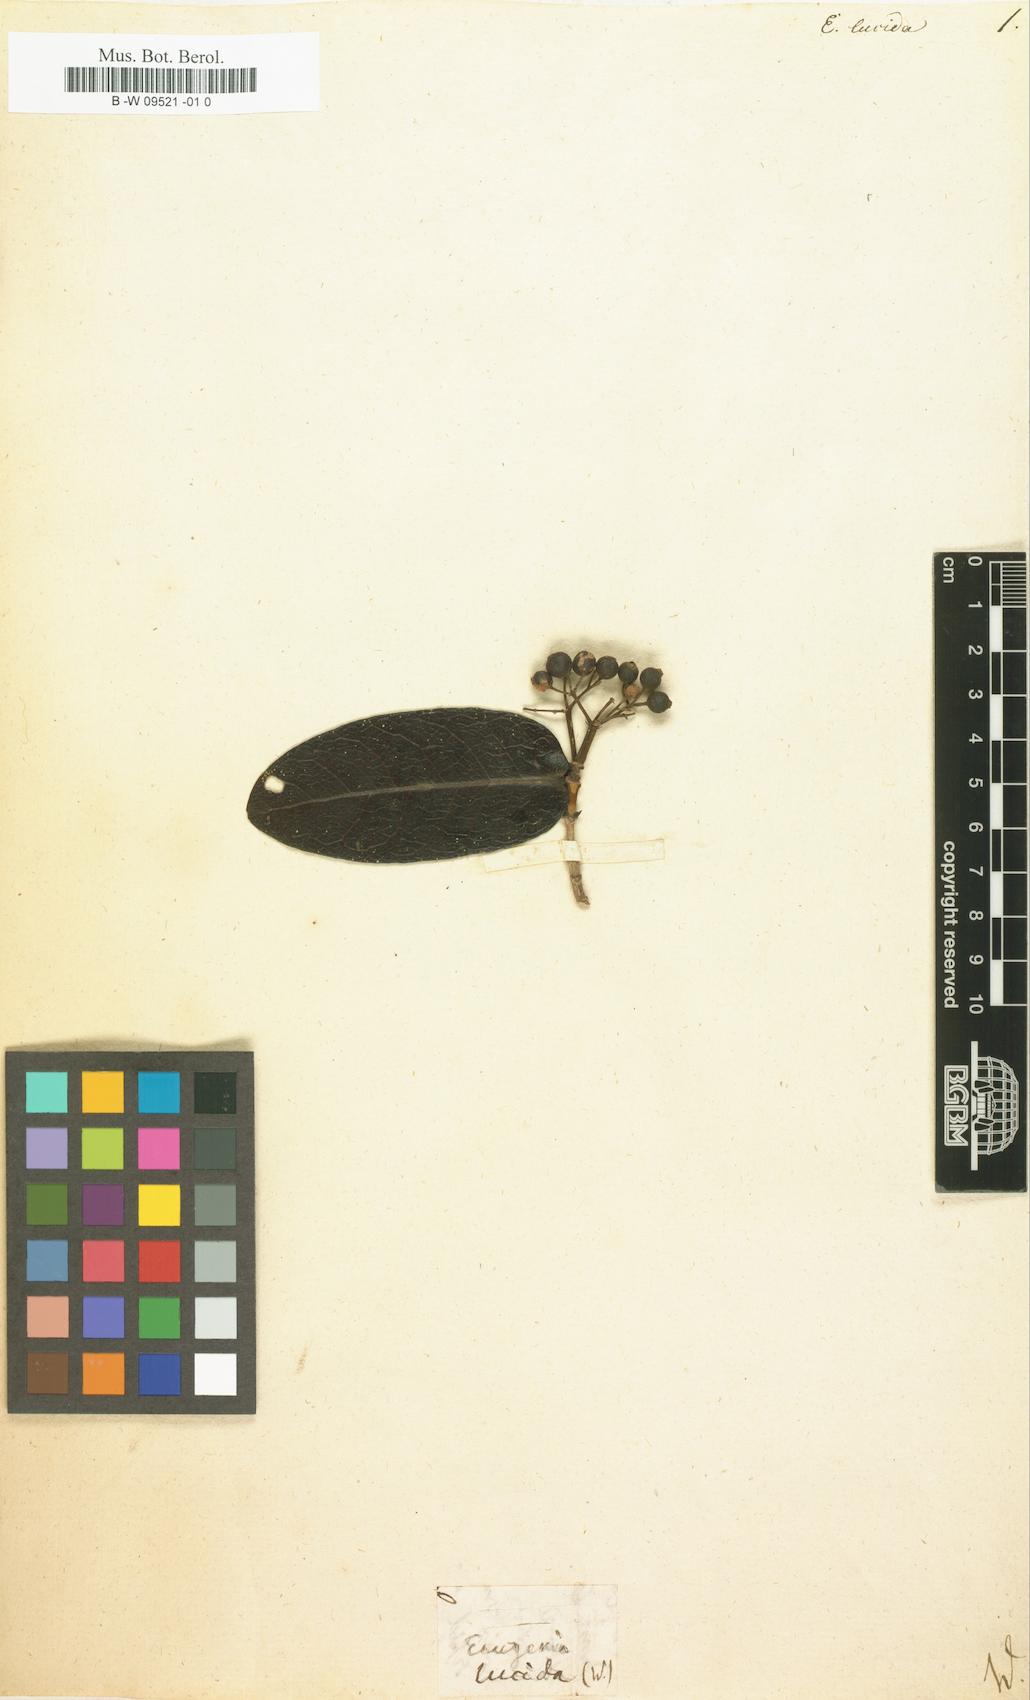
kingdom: Plantae
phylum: Tracheophyta
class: Magnoliopsida
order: Myrtales
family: Myrtaceae
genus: Eugenia
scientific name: Eugenia lucida
